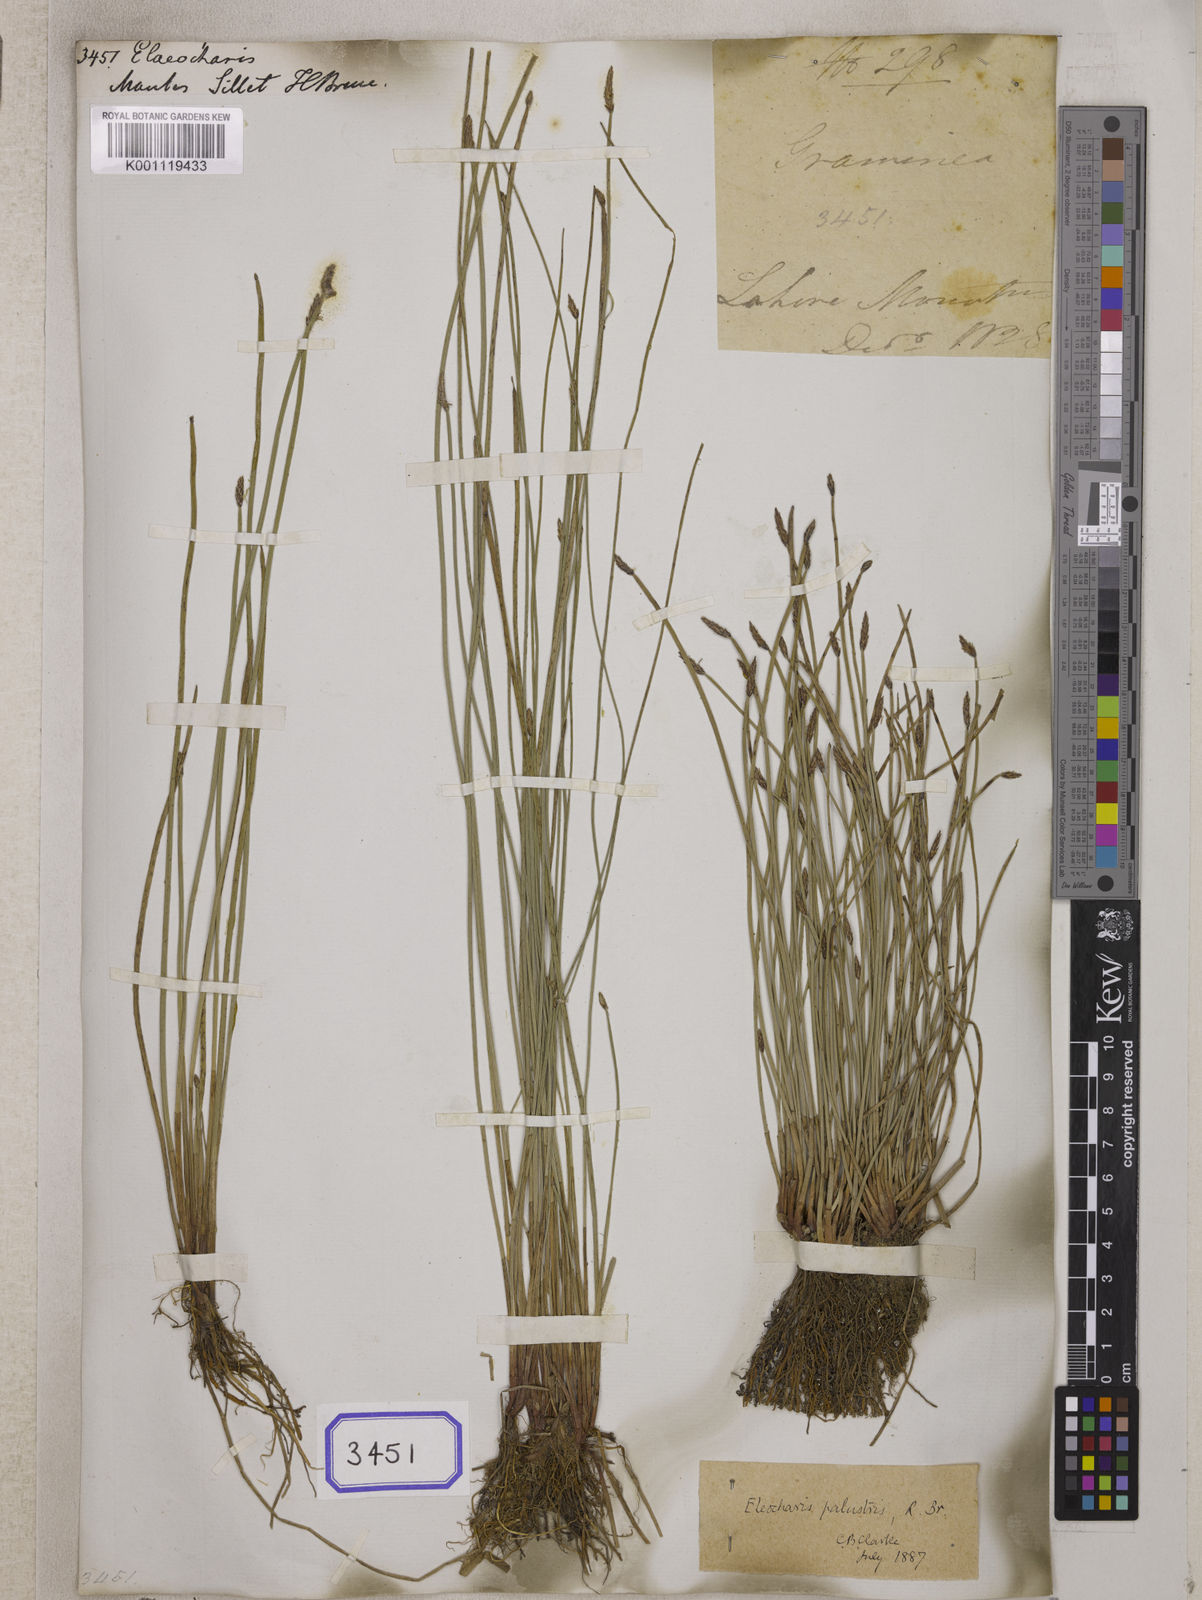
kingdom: Plantae
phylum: Tracheophyta
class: Liliopsida
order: Poales
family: Cyperaceae
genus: Eleocharis
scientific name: Eleocharis
